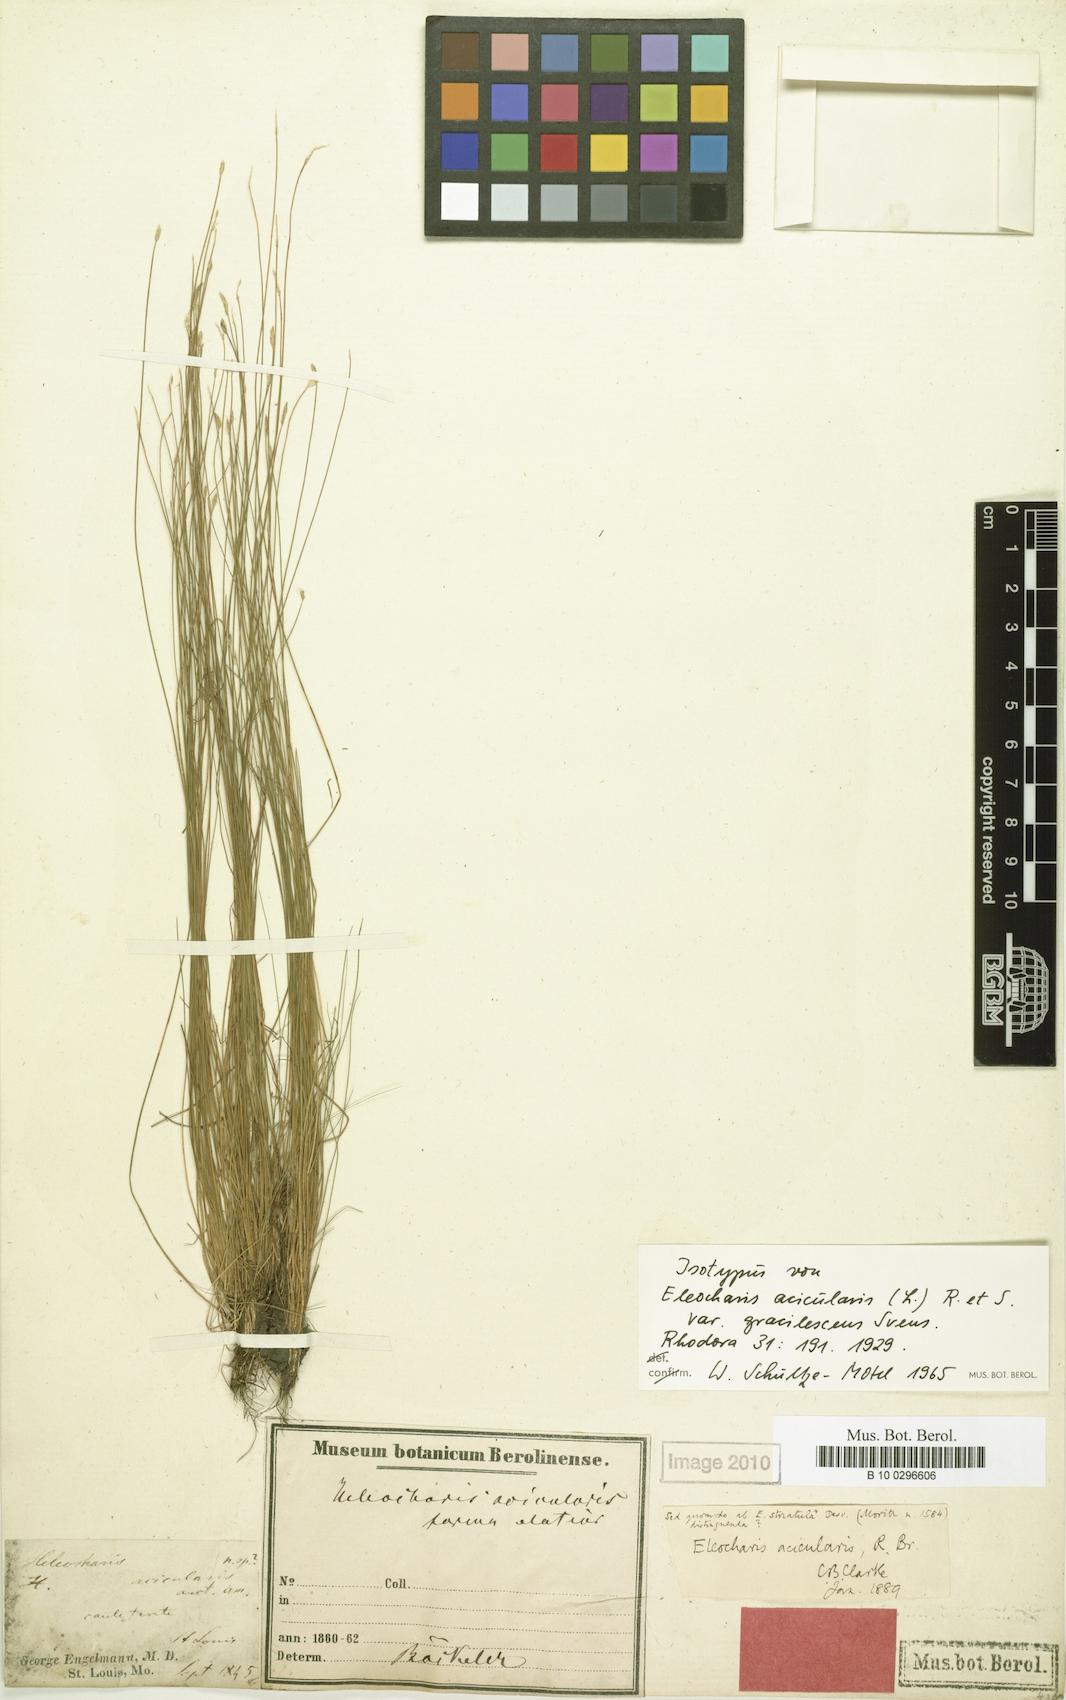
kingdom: Plantae
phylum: Tracheophyta
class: Liliopsida
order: Poales
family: Cyperaceae
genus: Eleocharis
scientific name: Eleocharis acicularis
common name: Needle spike-rush
